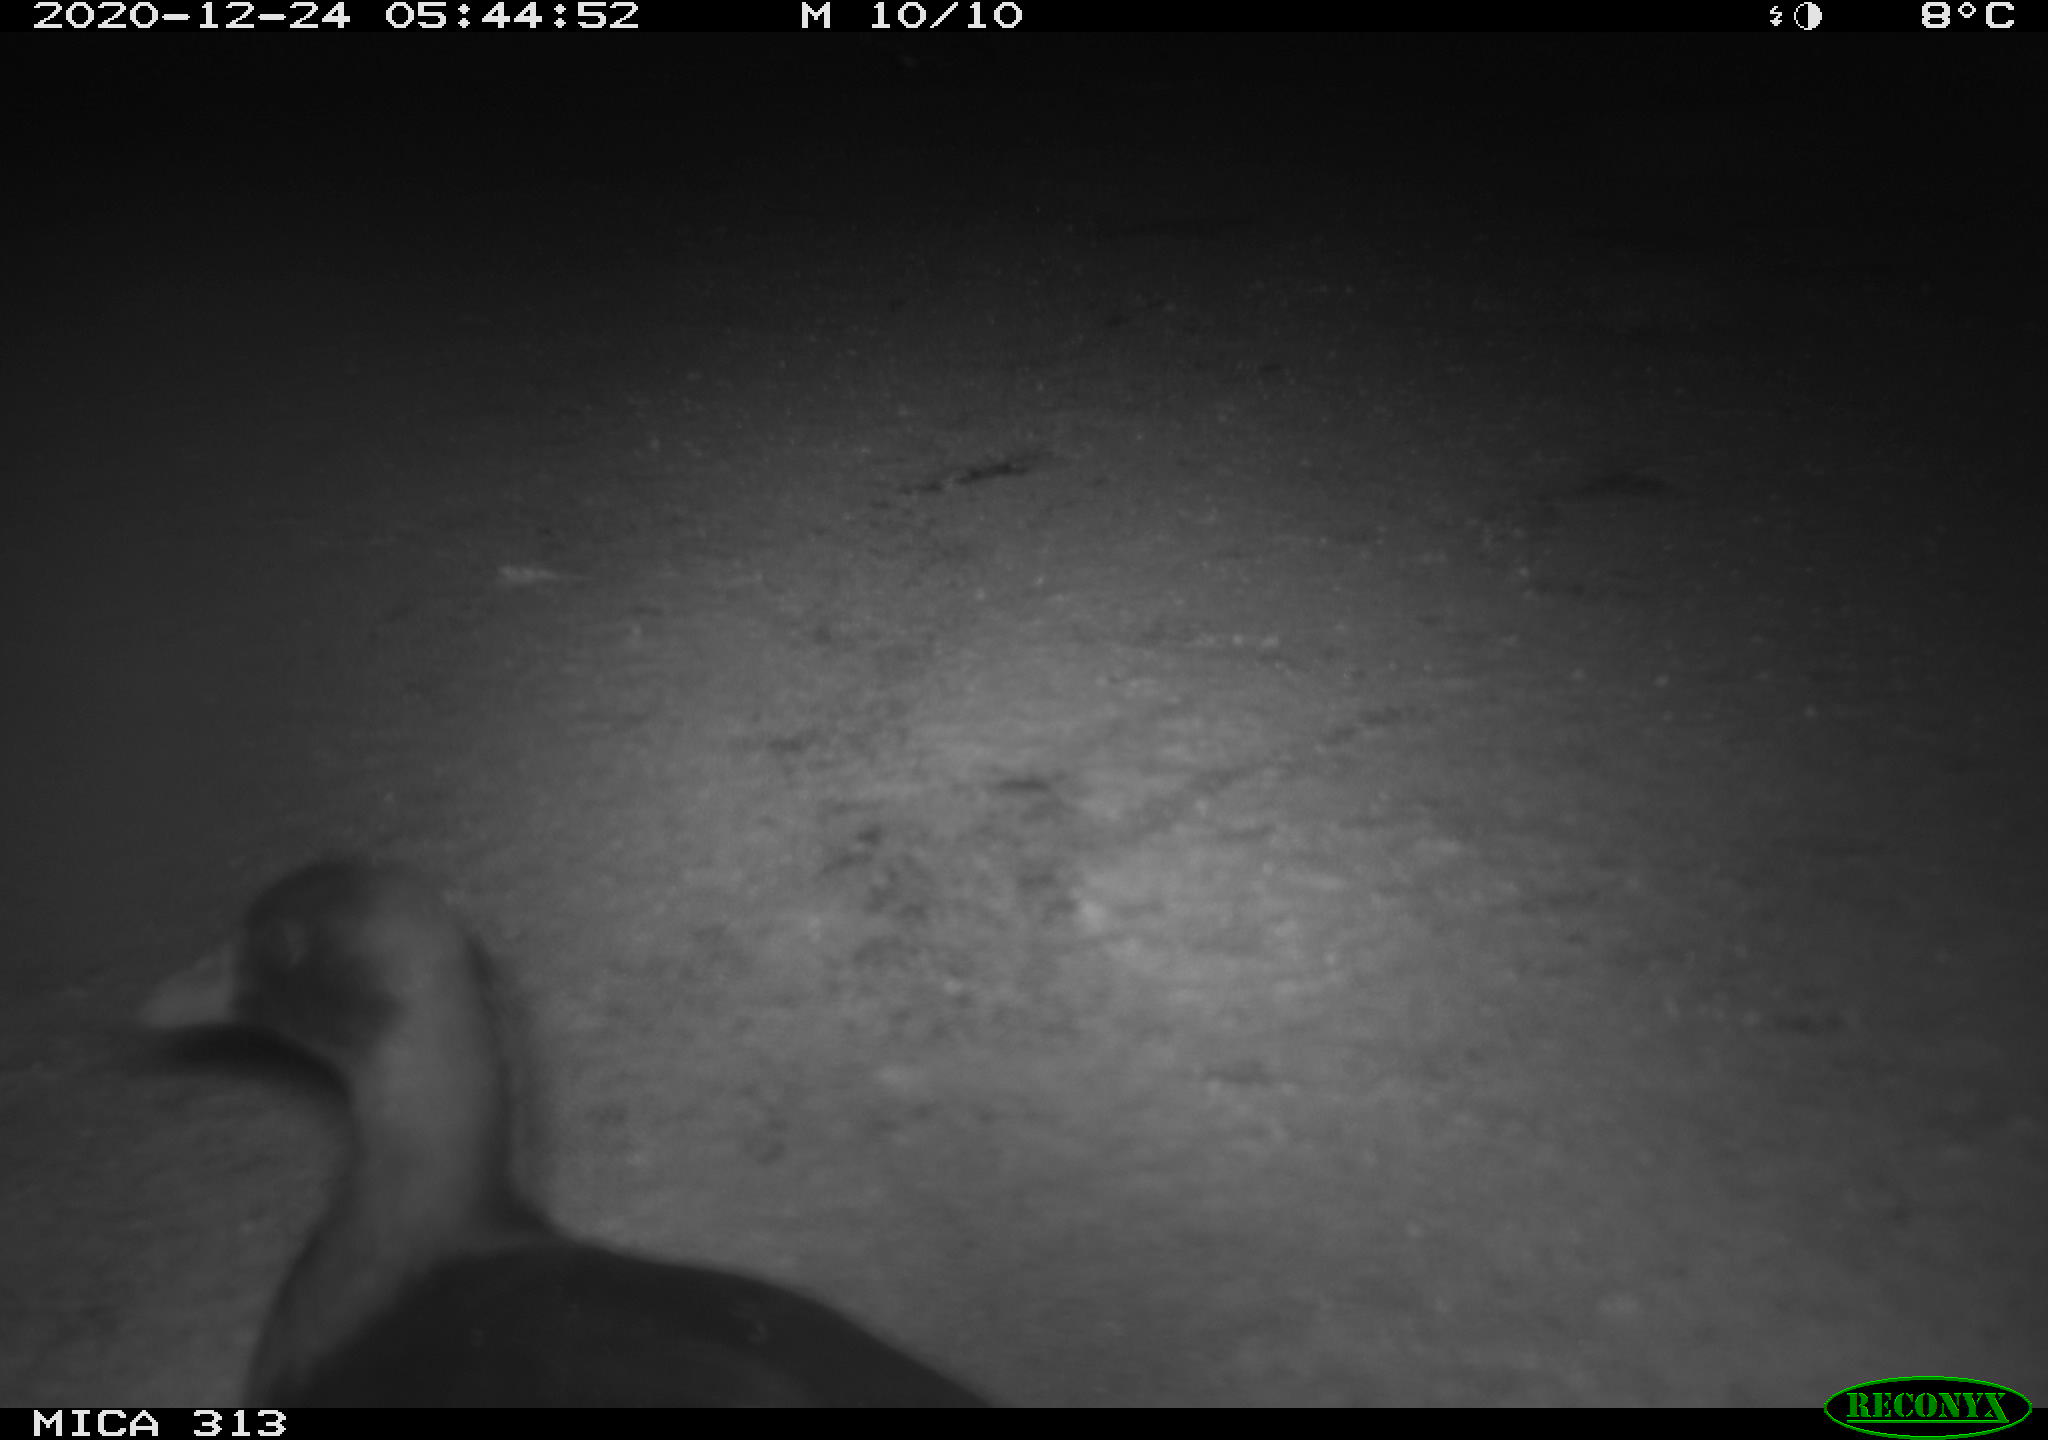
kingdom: Animalia
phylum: Chordata
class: Aves
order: Gruiformes
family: Rallidae
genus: Gallinula
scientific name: Gallinula chloropus
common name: Common moorhen
